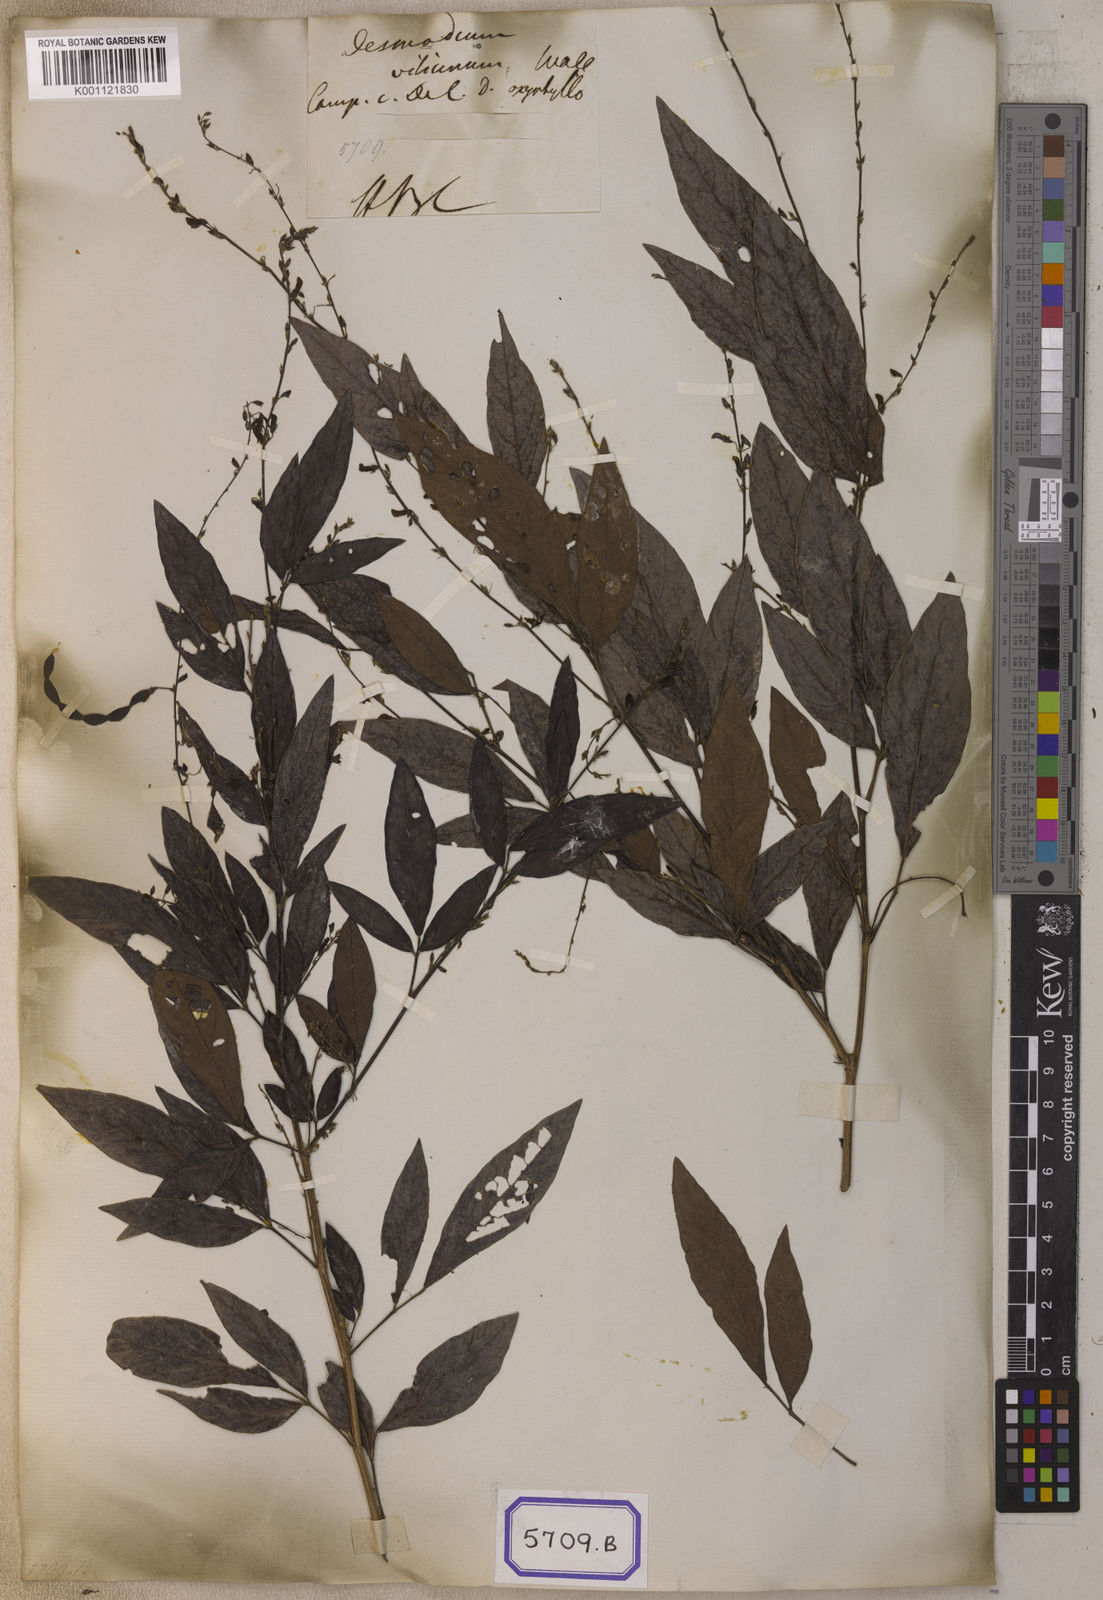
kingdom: Plantae
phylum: Tracheophyta
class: Magnoliopsida
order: Fabales
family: Fabaceae
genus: Desmodium
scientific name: Desmodium
